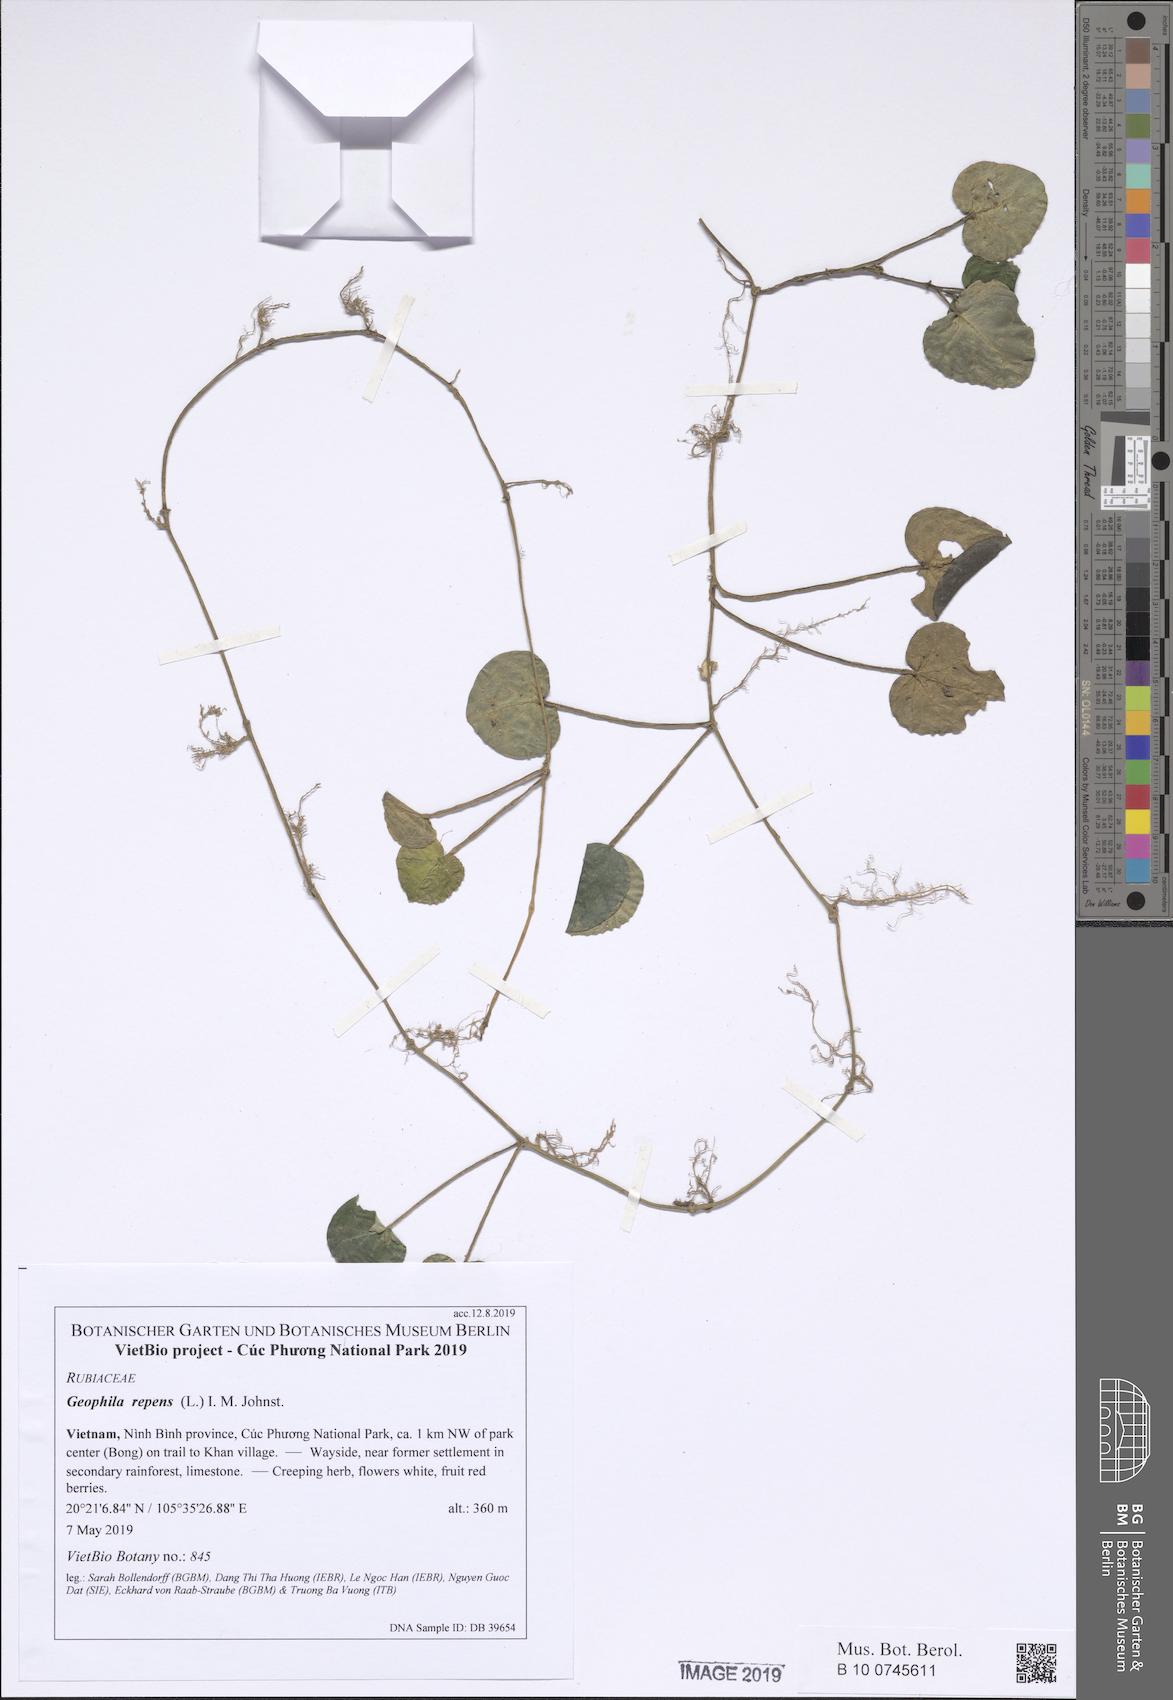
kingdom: Plantae
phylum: Tracheophyta
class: Magnoliopsida
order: Gentianales
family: Rubiaceae
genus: Geophila
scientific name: Geophila repens
